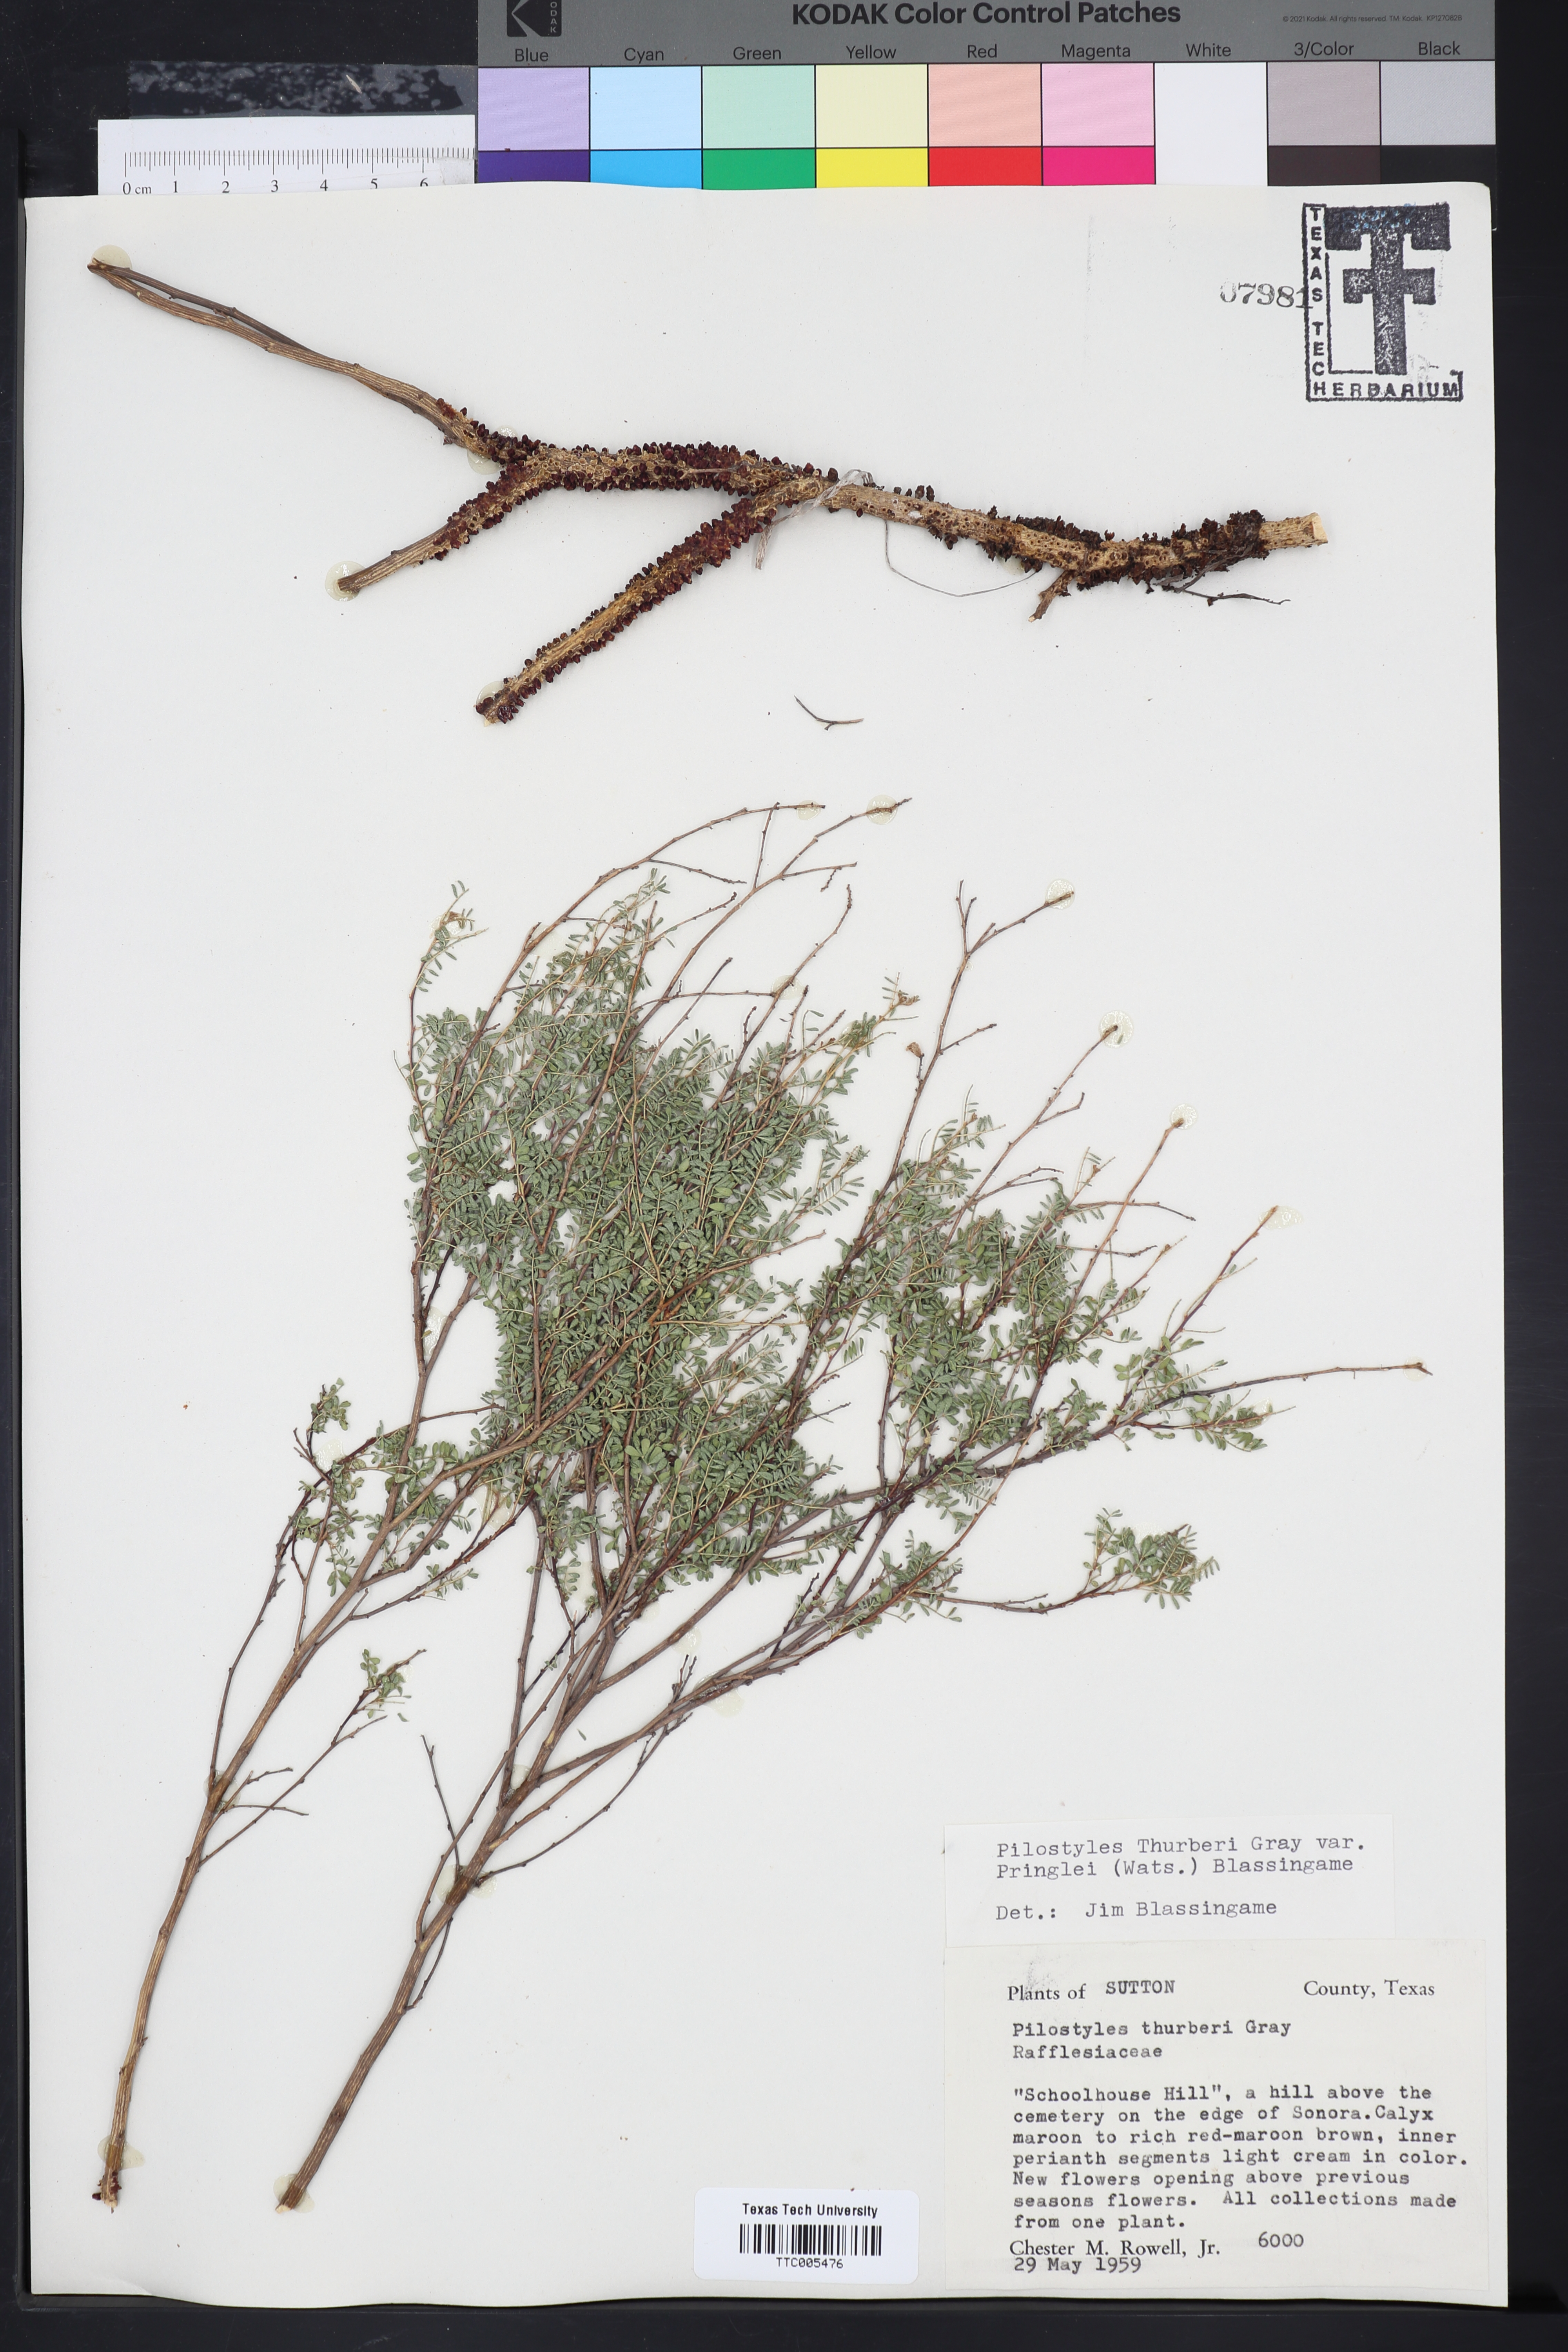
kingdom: Plantae
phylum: Tracheophyta
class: Magnoliopsida
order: Cucurbitales
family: Apodanthaceae
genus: Pilostyles
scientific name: Pilostyles thurberi
